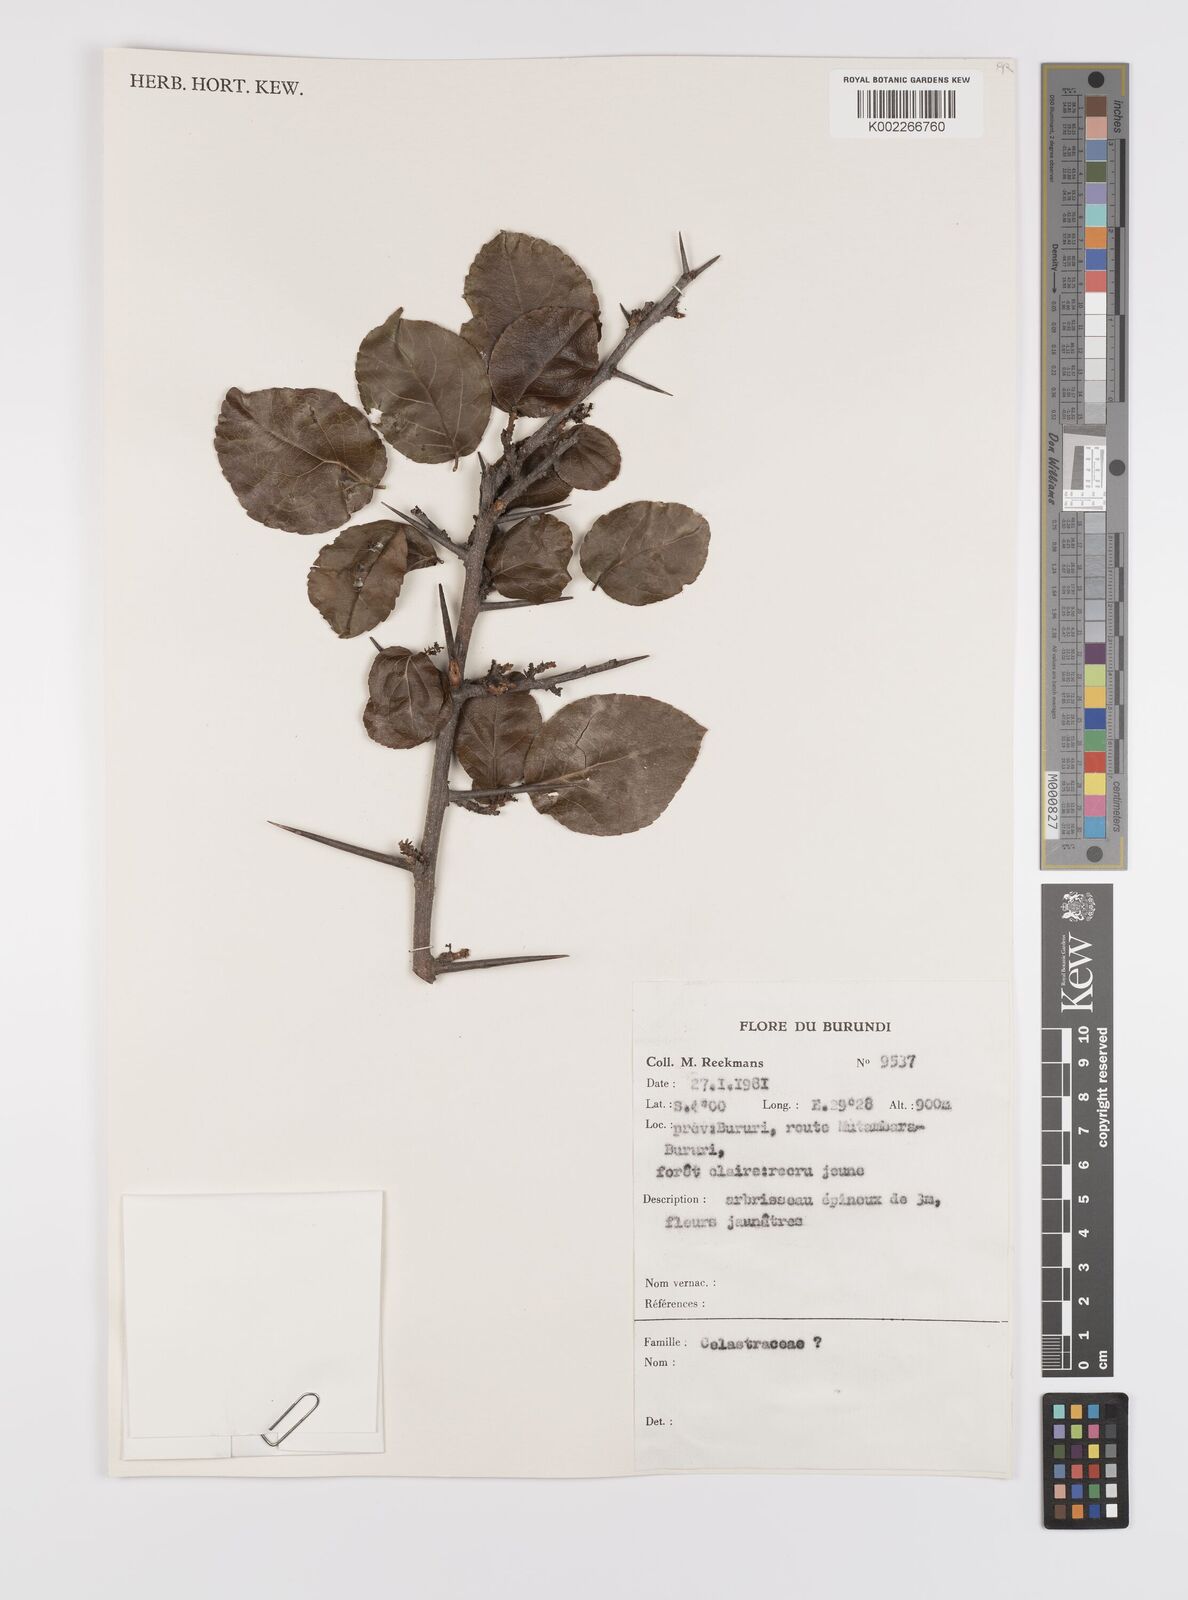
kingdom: Plantae
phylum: Tracheophyta
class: Magnoliopsida
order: Celastrales
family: Celastraceae
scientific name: Celastraceae
